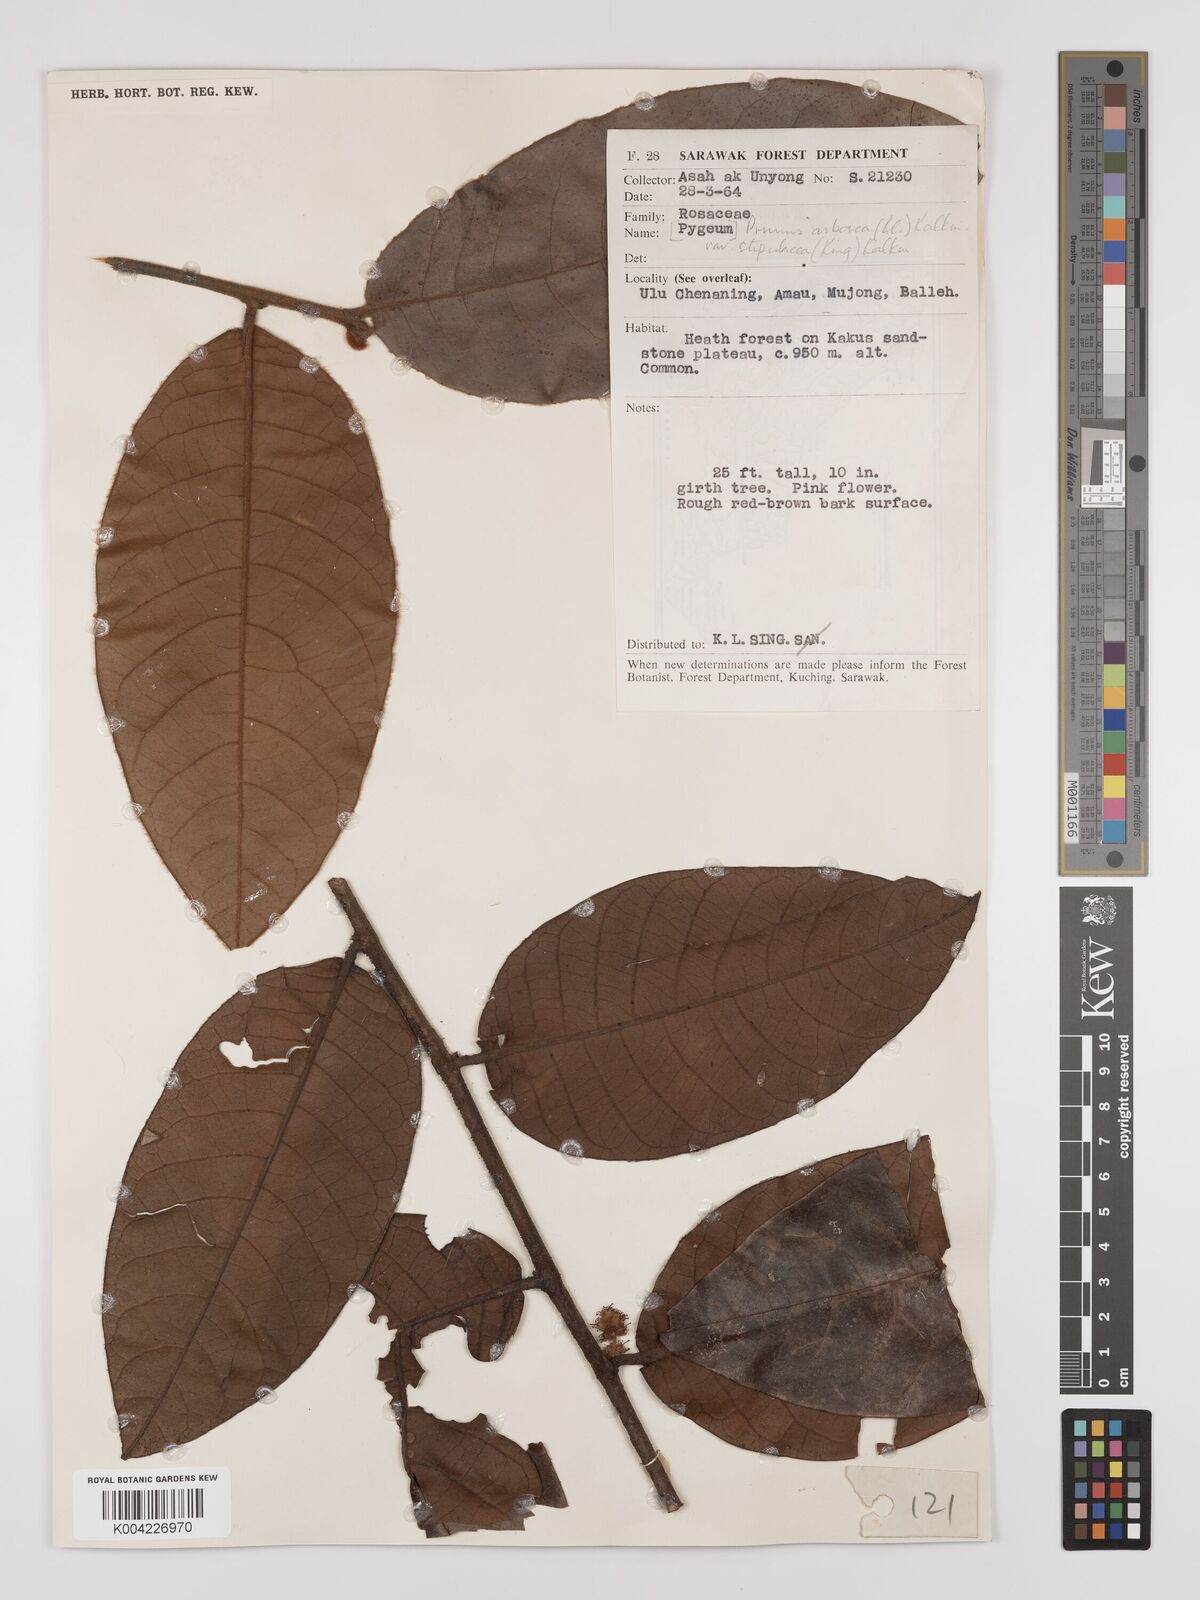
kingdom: Plantae
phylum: Tracheophyta
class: Magnoliopsida
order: Rosales
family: Rosaceae
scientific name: Rosaceae
